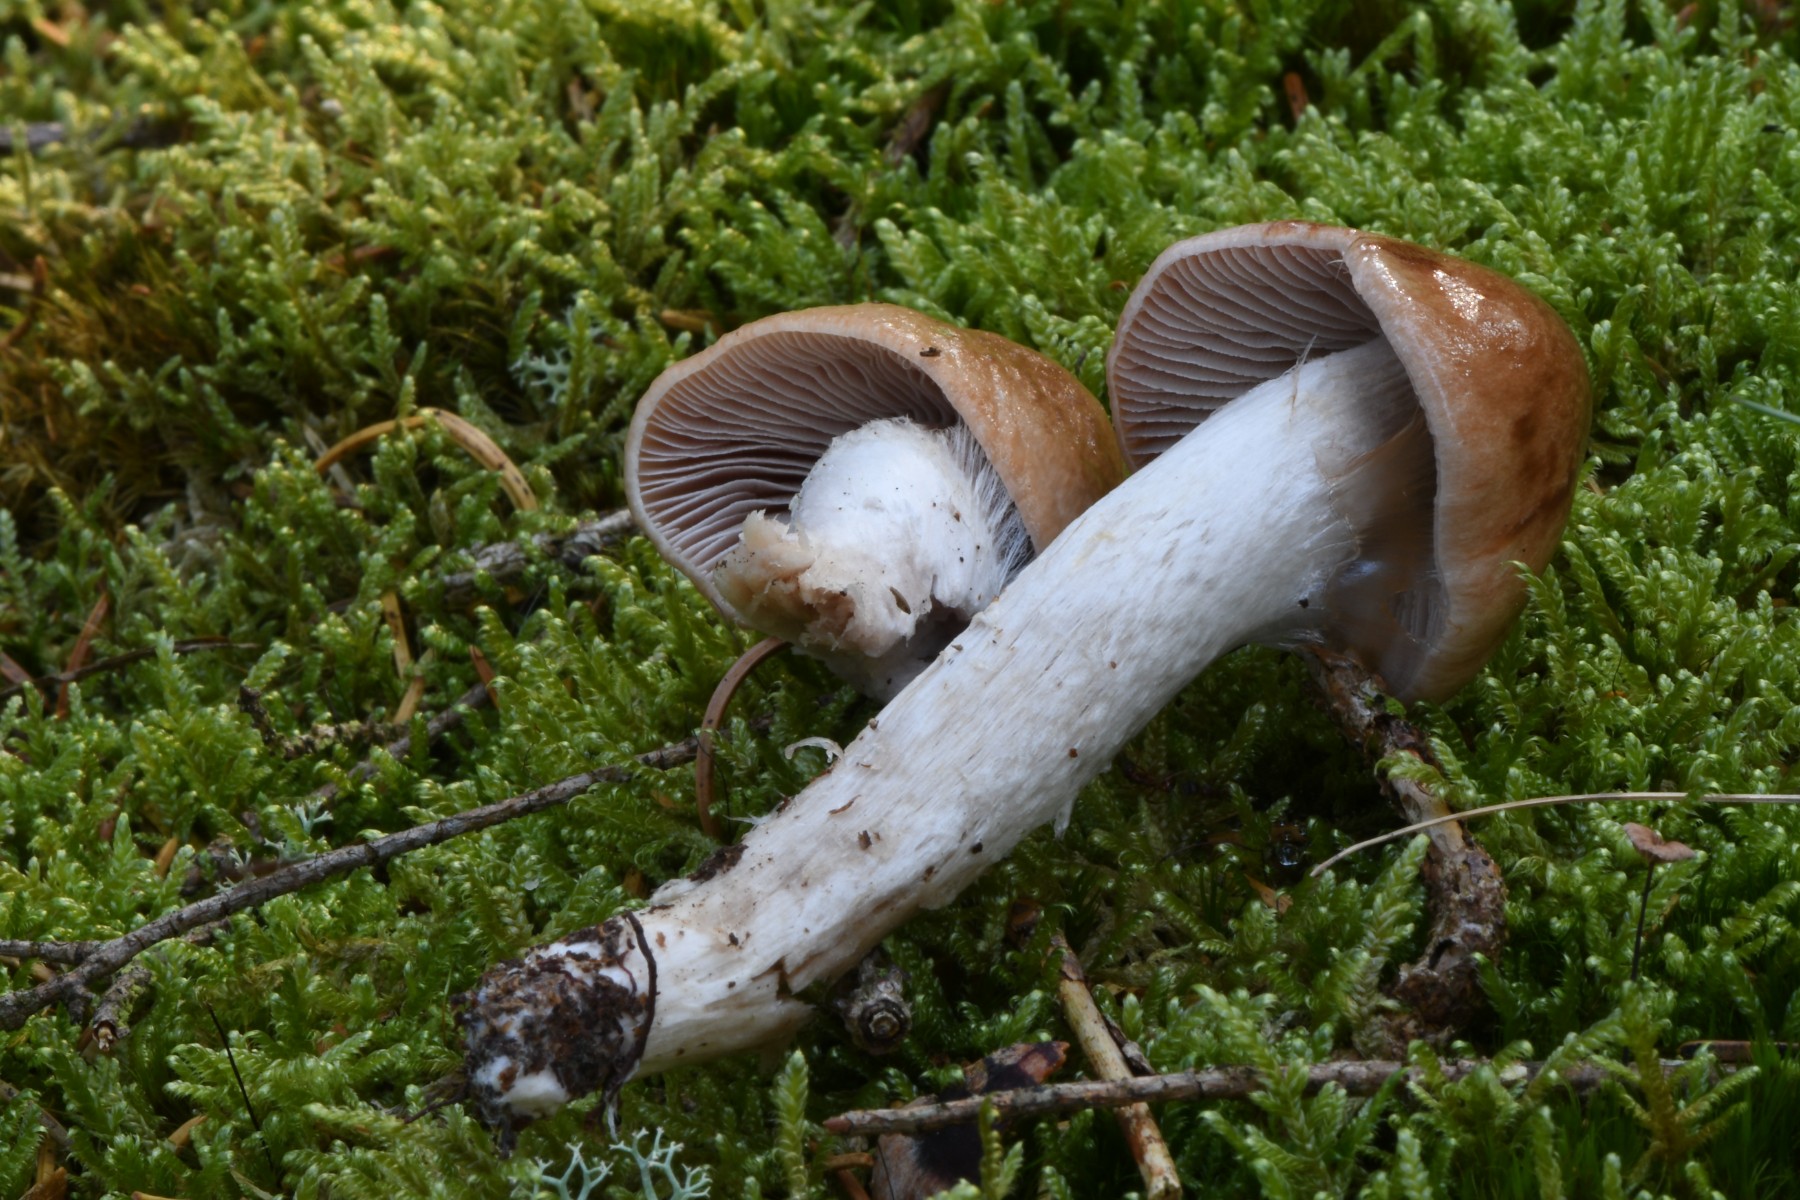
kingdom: Fungi
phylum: Basidiomycota
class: Agaricomycetes
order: Agaricales
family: Cortinariaceae
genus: Cortinarius
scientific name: Cortinarius stillatitius
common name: honningduftende slørhat
